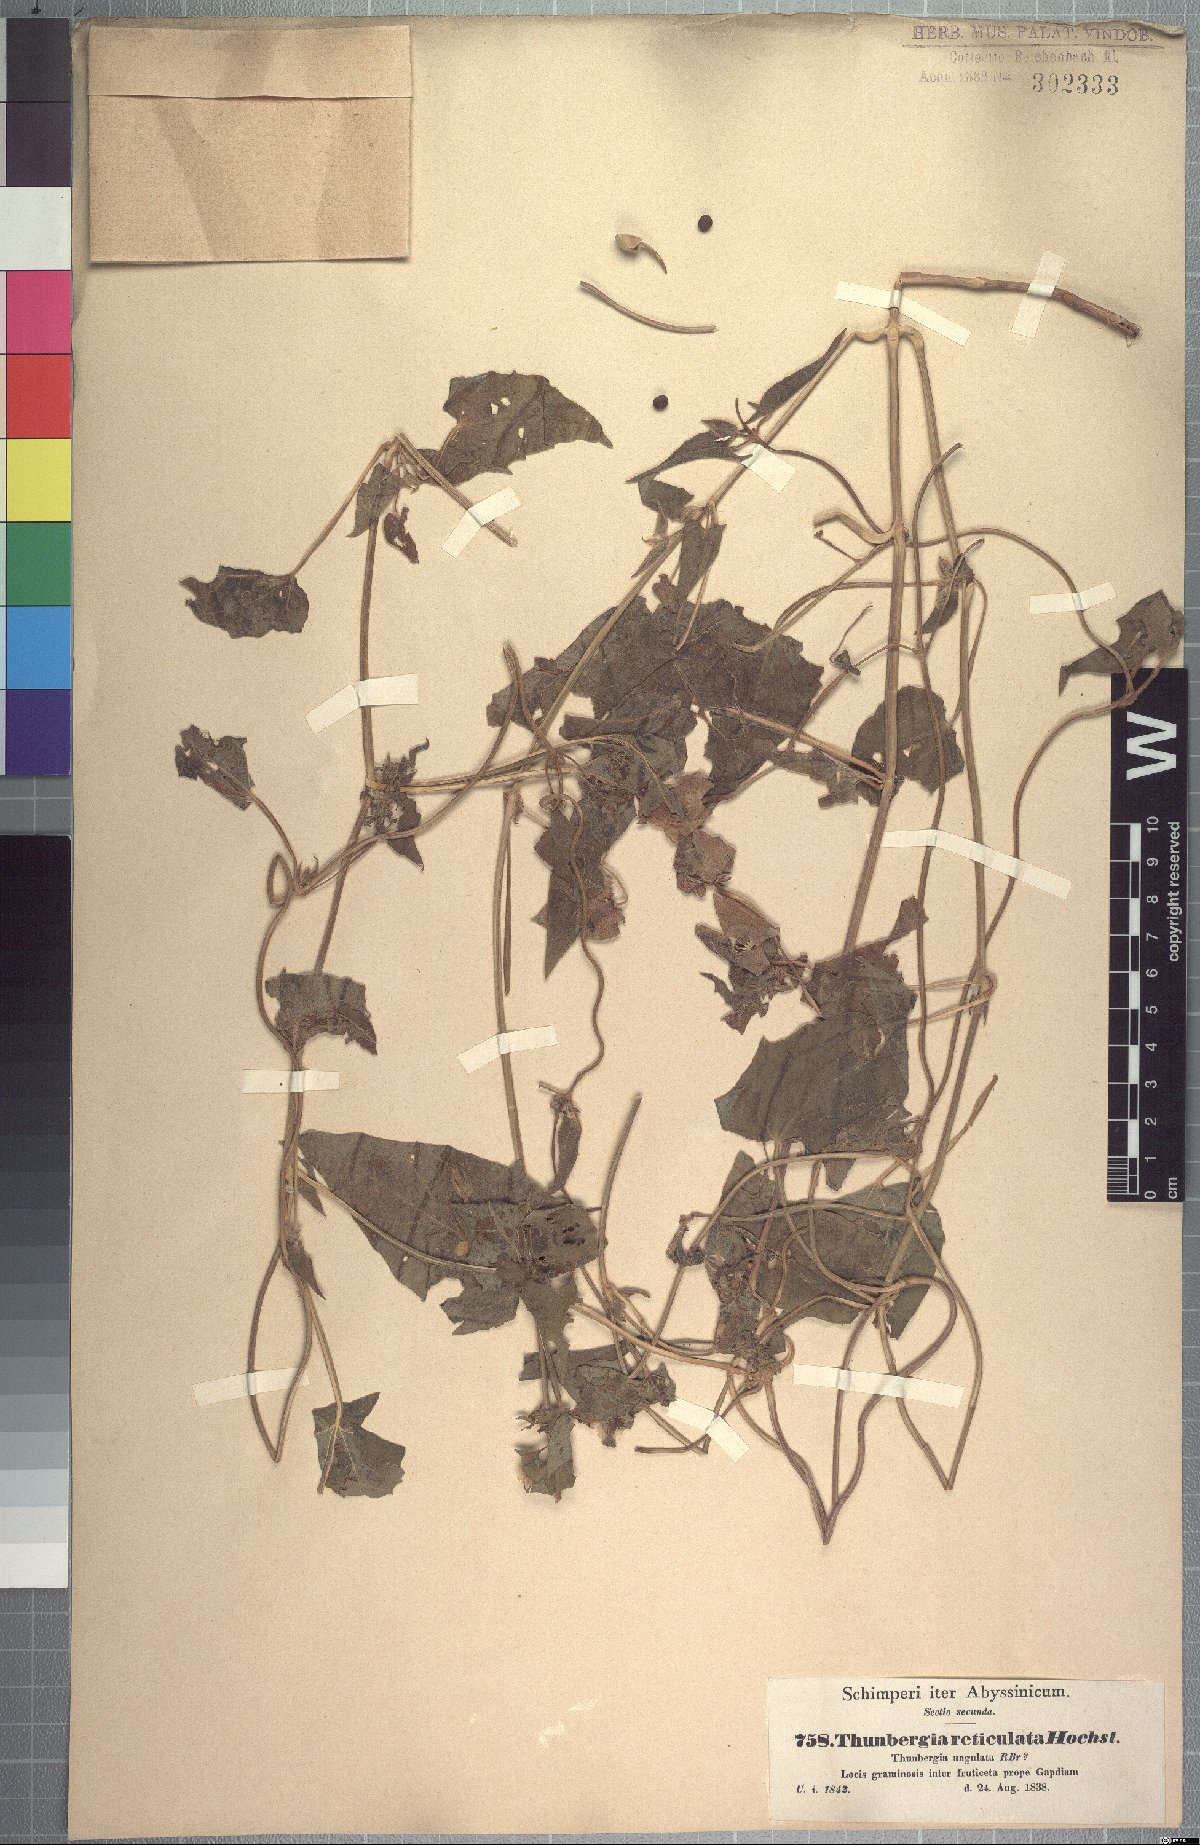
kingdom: Plantae
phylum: Tracheophyta
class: Magnoliopsida
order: Lamiales
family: Acanthaceae
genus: Thunbergia
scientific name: Thunbergia alata
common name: Blackeyed susan vine
